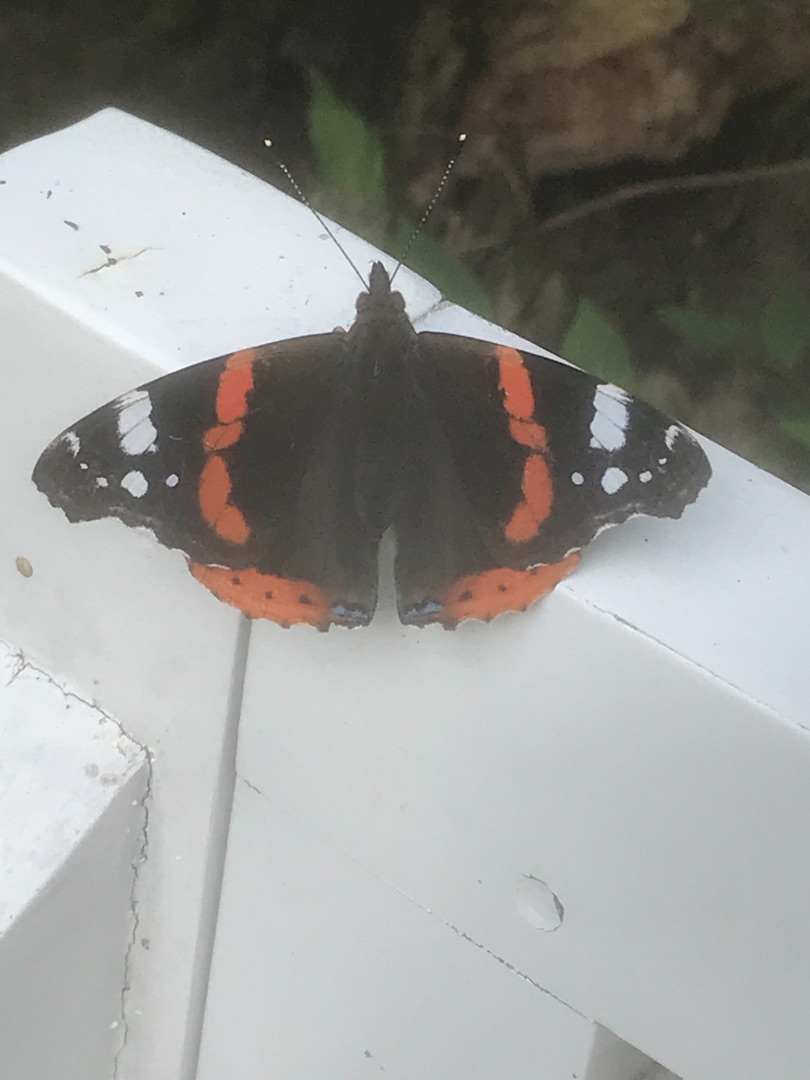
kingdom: Animalia
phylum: Arthropoda
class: Insecta
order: Lepidoptera
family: Nymphalidae
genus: Vanessa
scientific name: Vanessa atalanta
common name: Admiral
